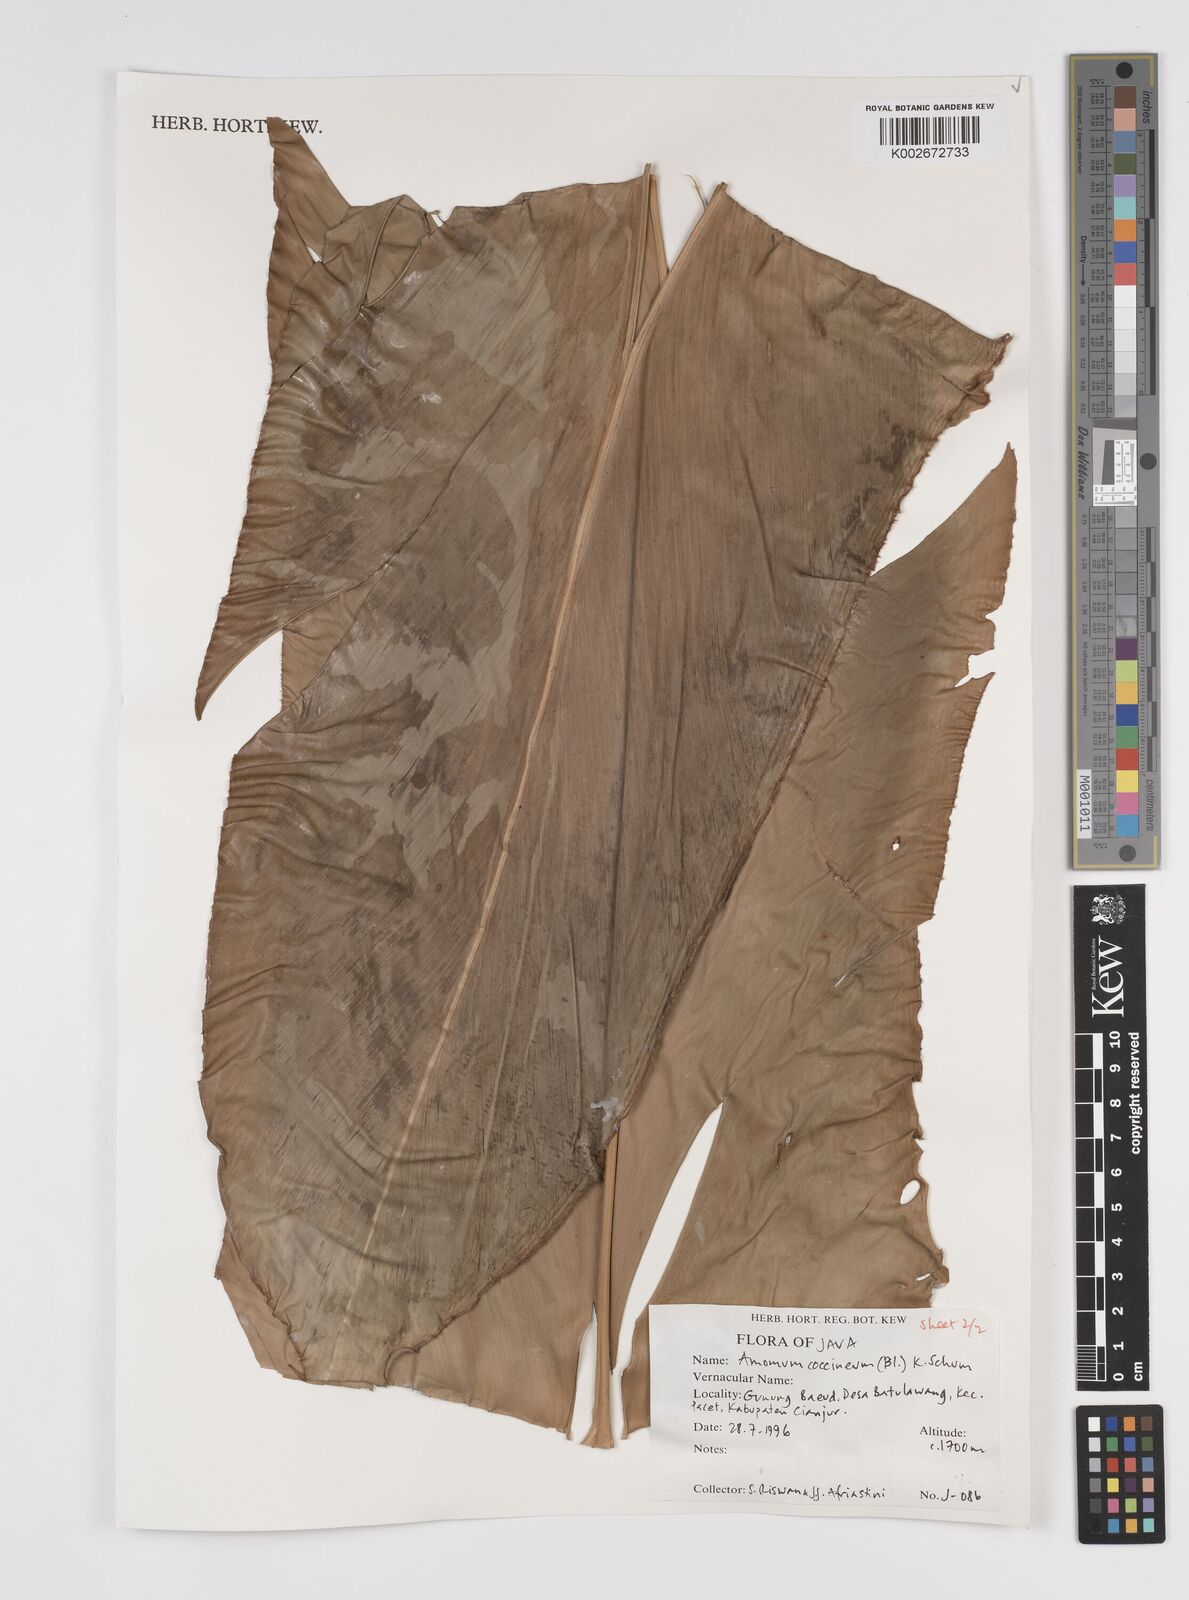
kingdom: Plantae
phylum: Tracheophyta
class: Liliopsida
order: Zingiberales
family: Zingiberaceae
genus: Etlingera
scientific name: Etlingera coccinea
